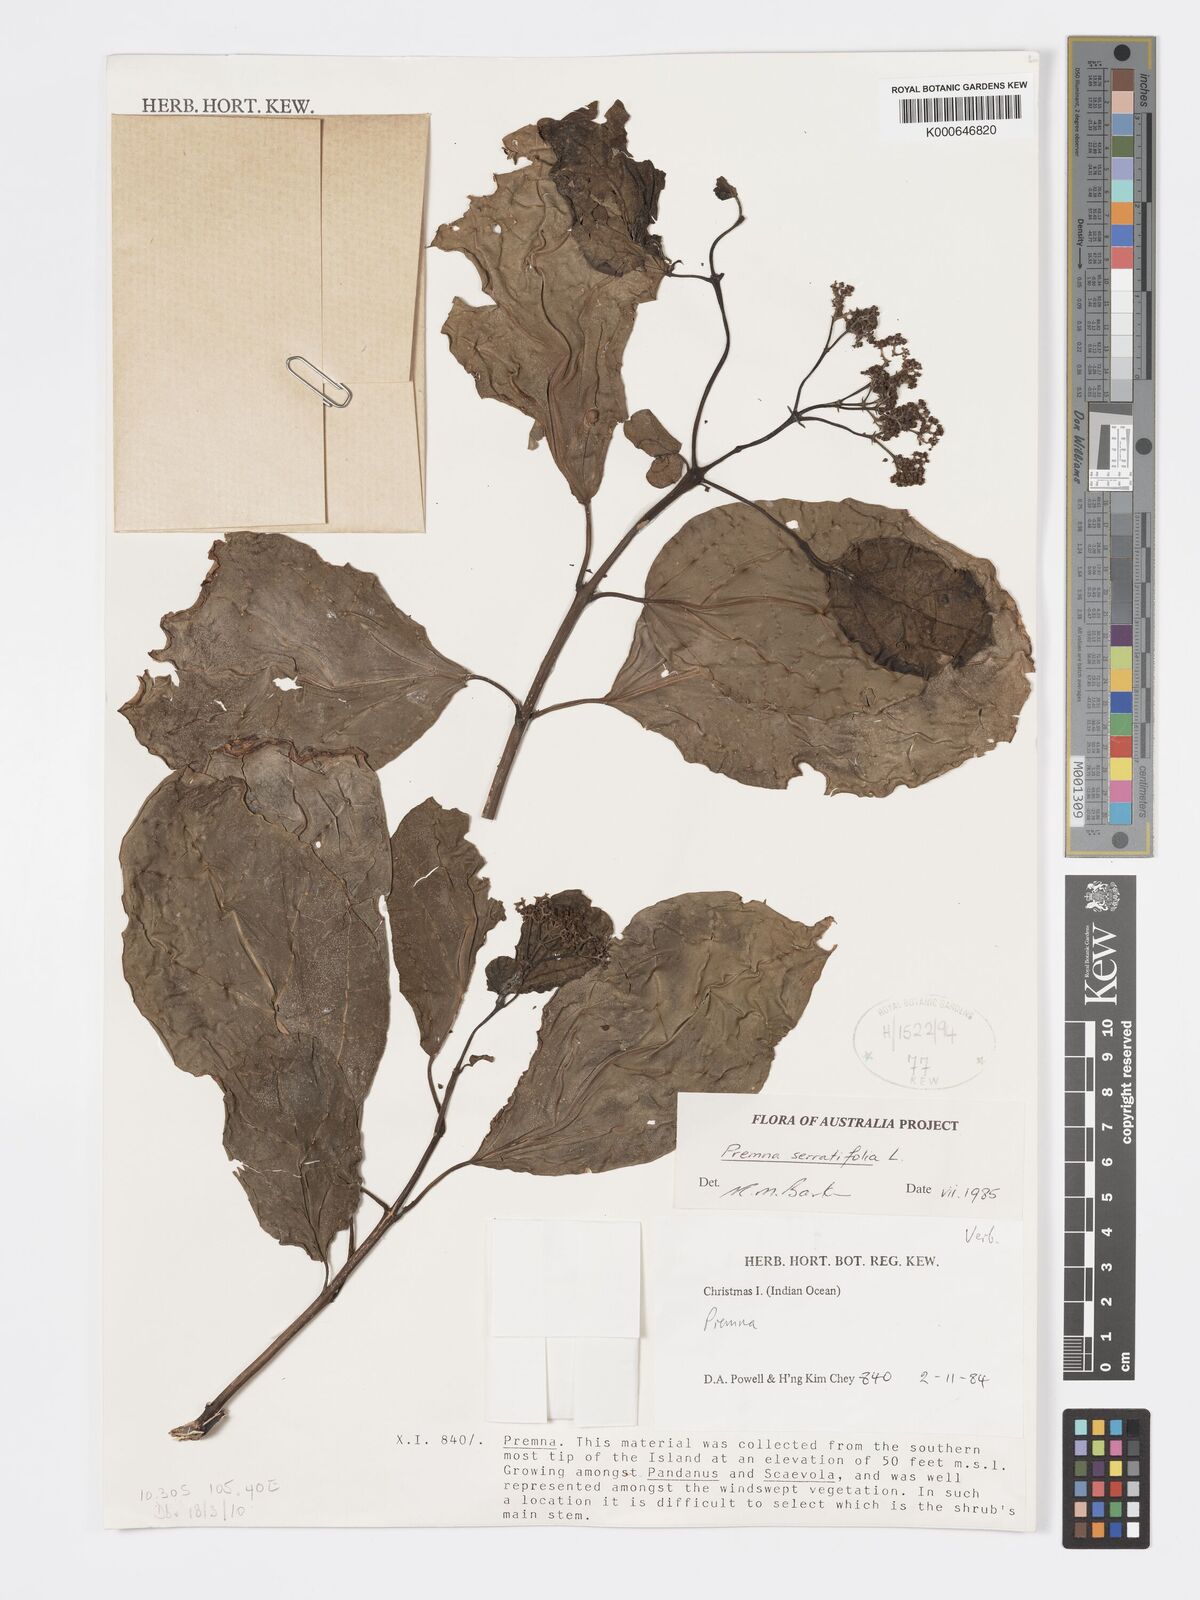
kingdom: Plantae
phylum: Tracheophyta
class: Magnoliopsida
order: Lamiales
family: Lamiaceae
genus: Premna
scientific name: Premna serratifolia
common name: Bastard guelder
